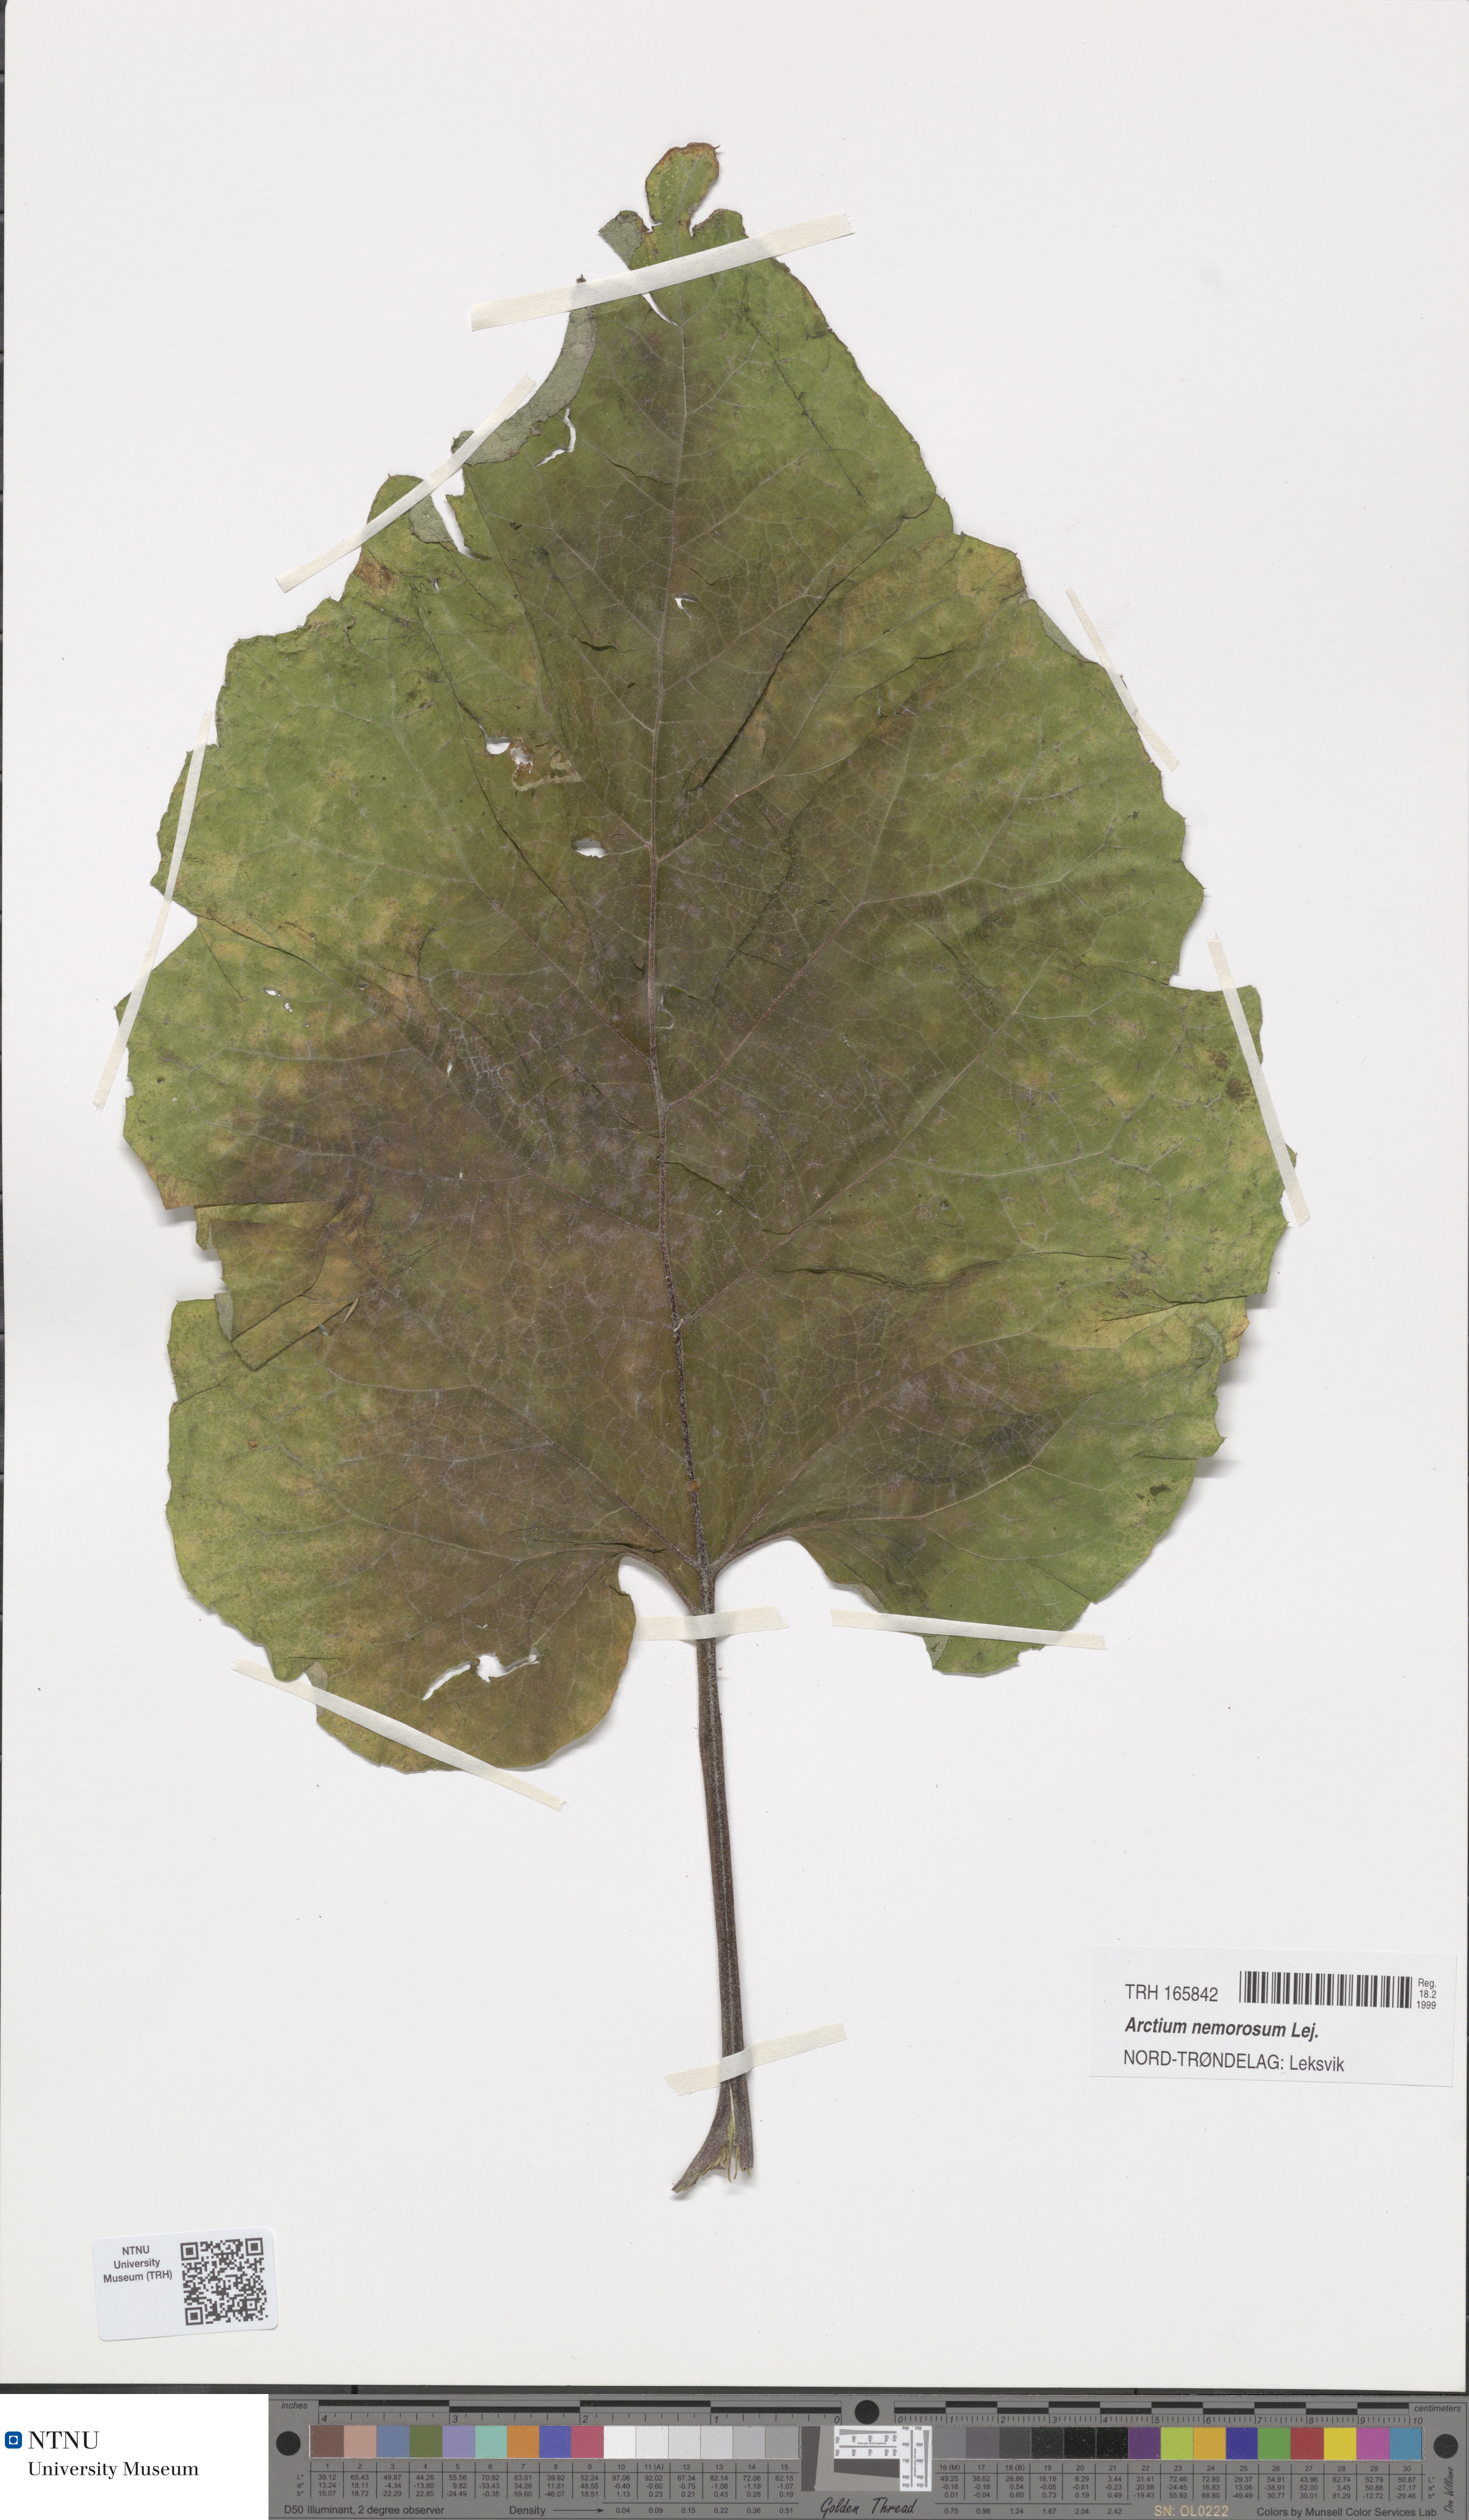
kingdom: Plantae
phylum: Tracheophyta
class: Magnoliopsida
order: Asterales
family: Asteraceae
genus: Arctium
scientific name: Arctium nemorosum
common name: Wood burdock
